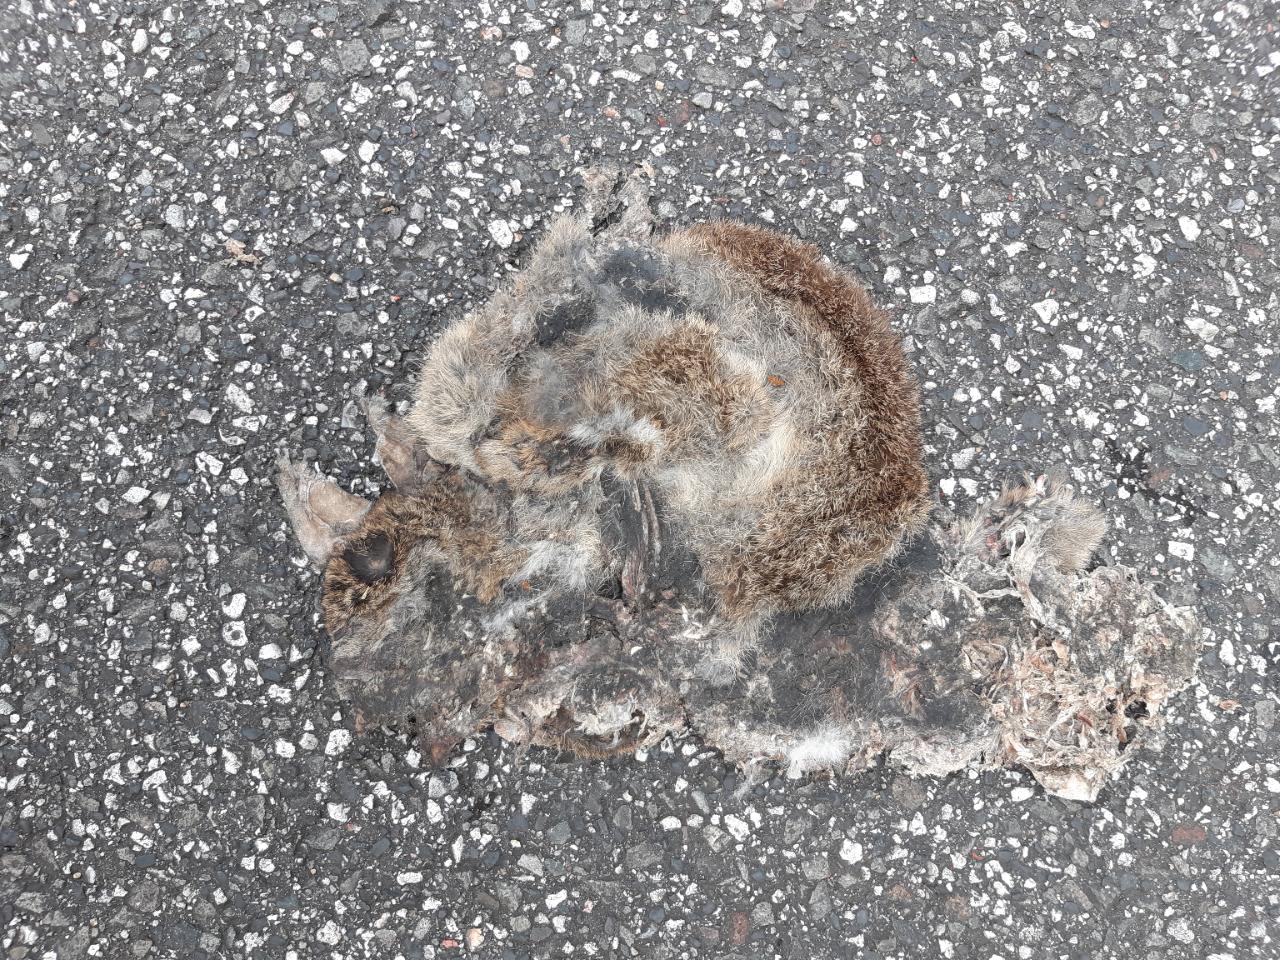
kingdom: Animalia
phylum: Chordata
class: Mammalia
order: Lagomorpha
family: Leporidae
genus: Oryctolagus
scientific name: Oryctolagus cuniculus
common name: European rabbit
